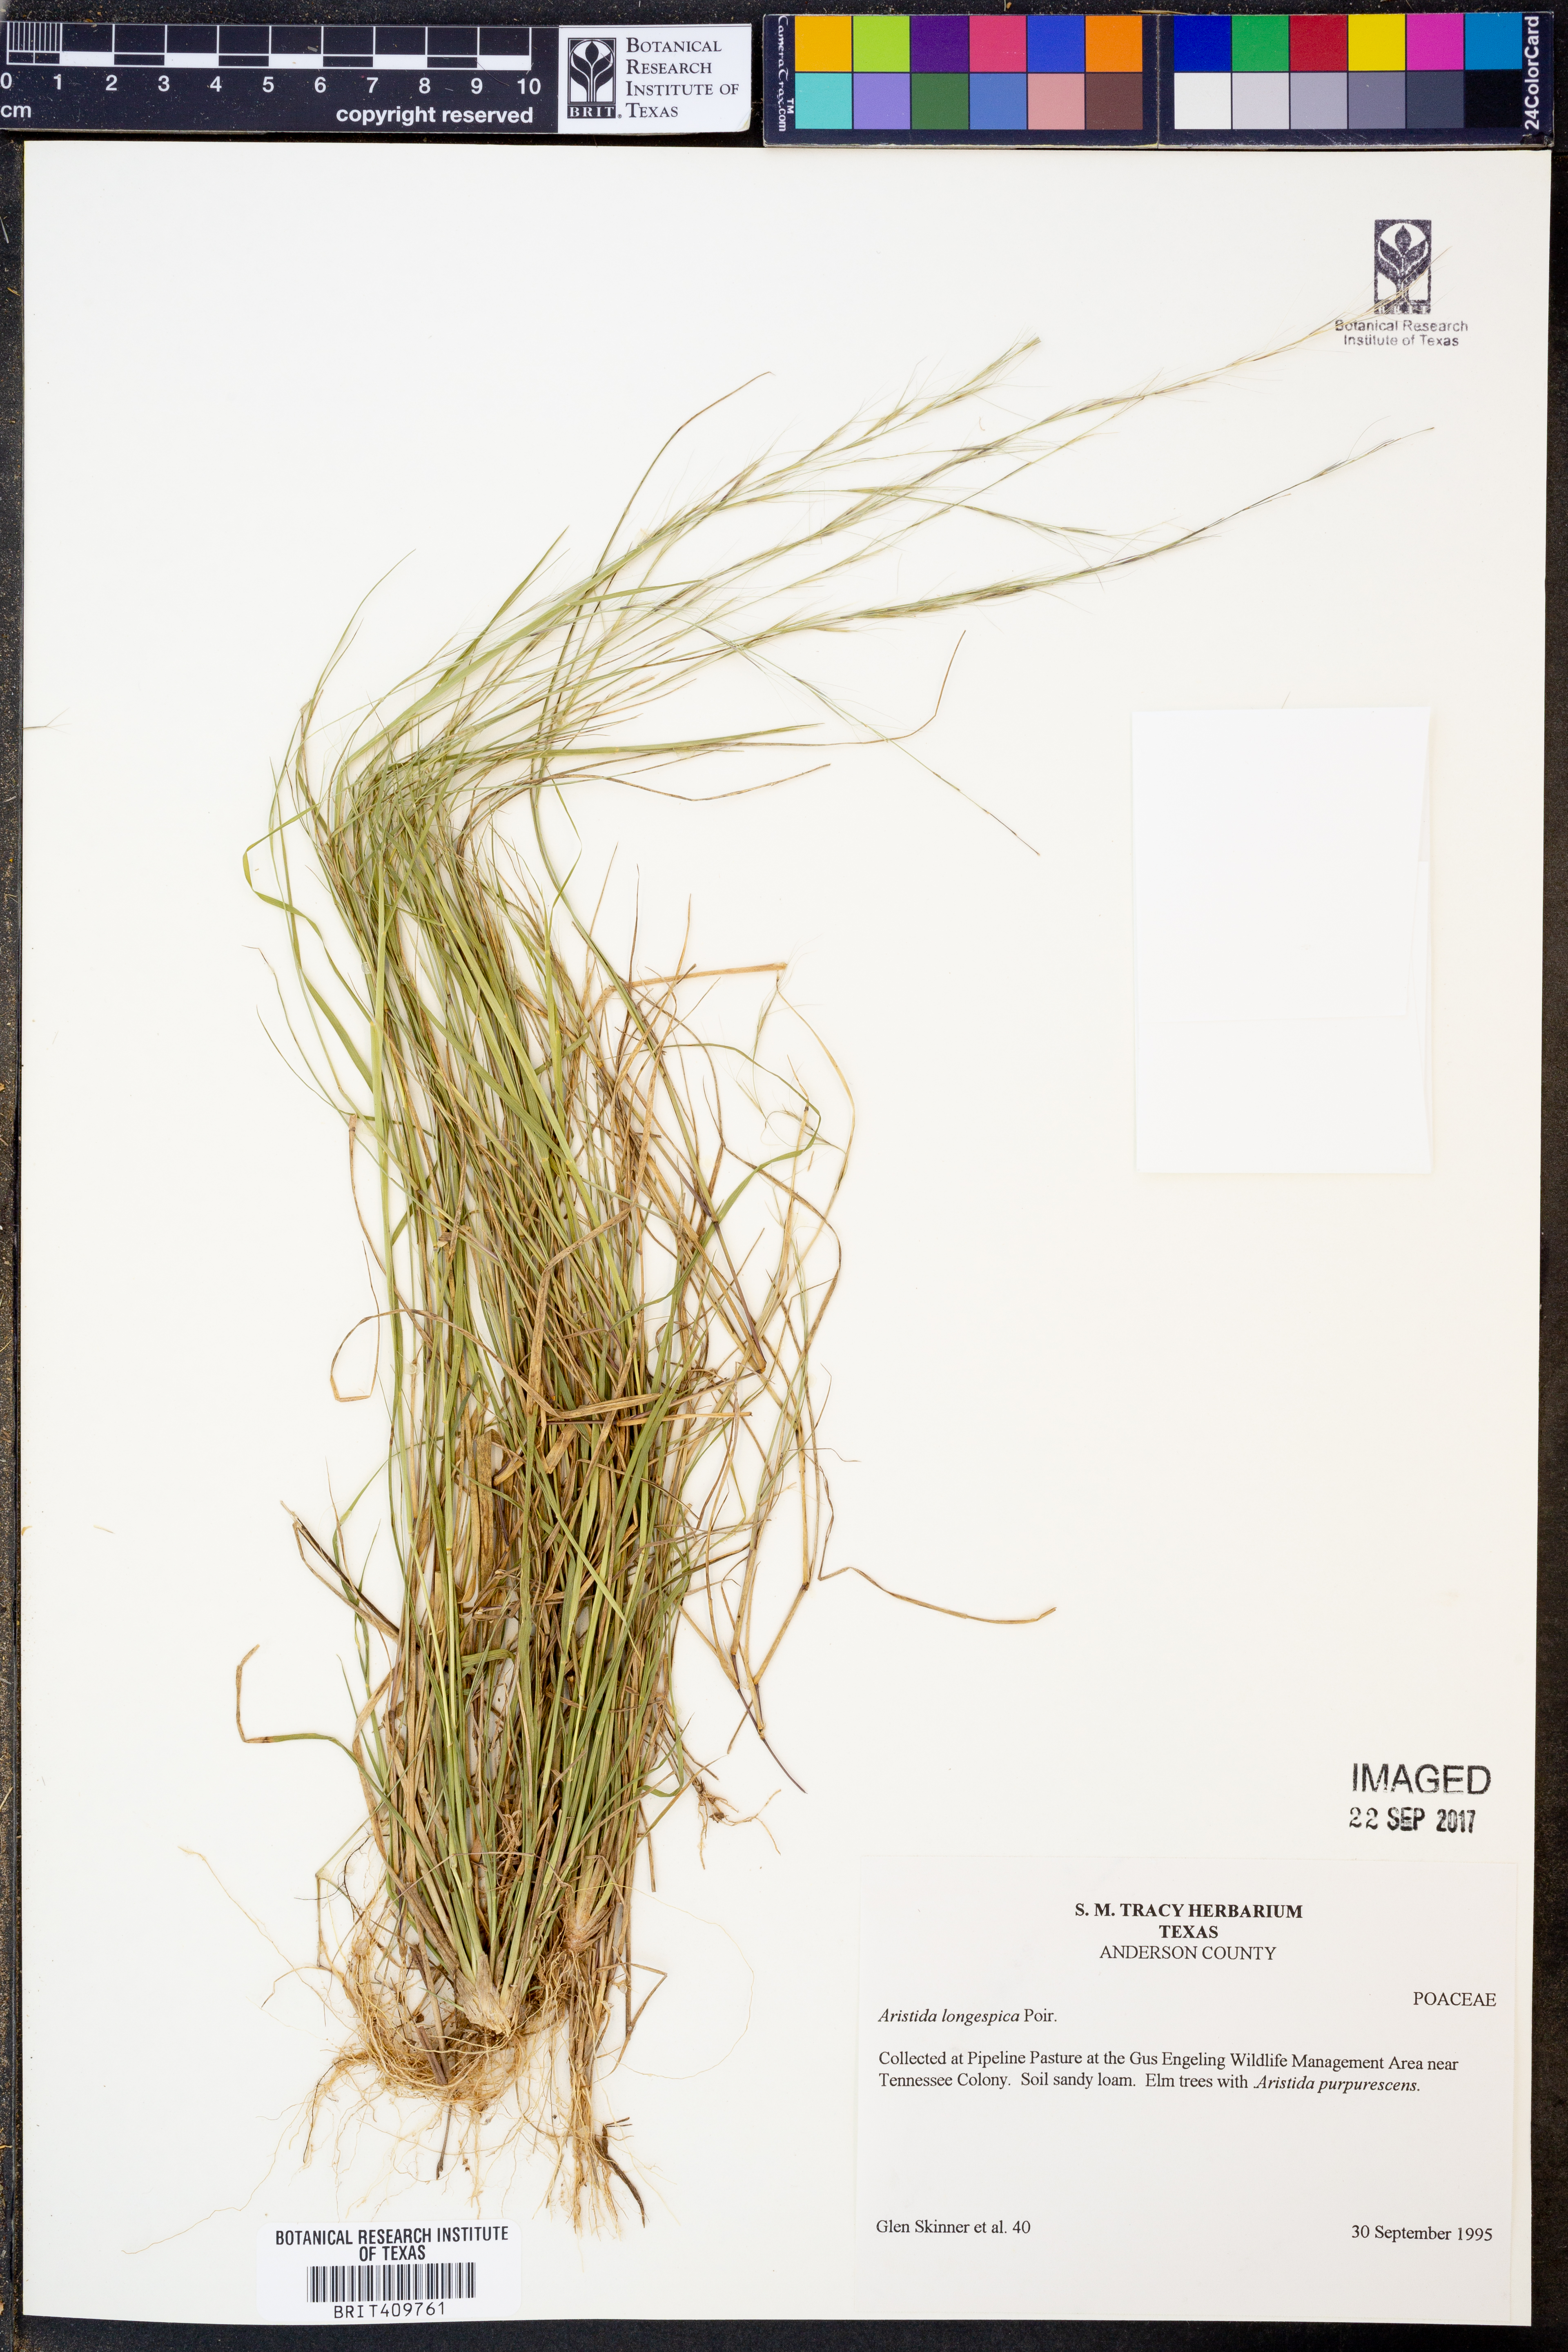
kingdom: Plantae
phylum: Tracheophyta
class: Liliopsida
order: Poales
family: Poaceae
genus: Aristida
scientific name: Aristida longespica
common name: Long-spiked triple-awned grass
